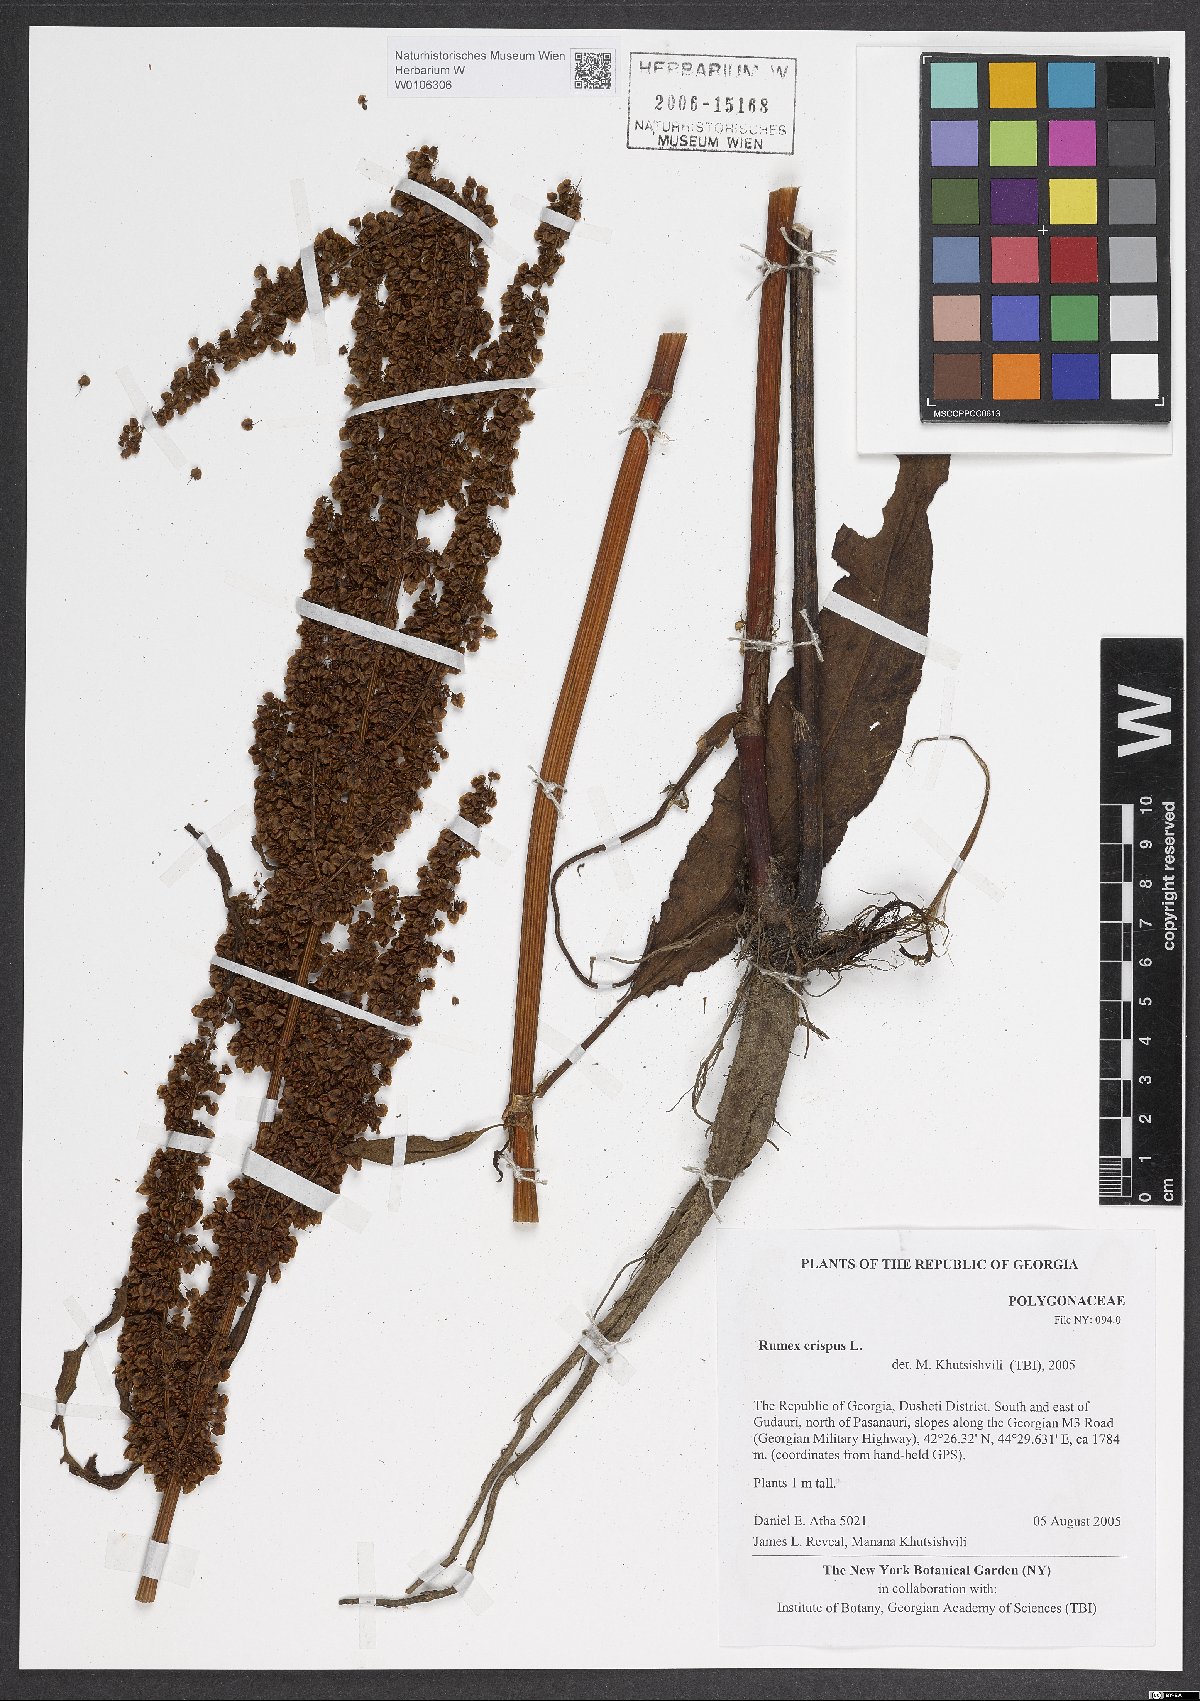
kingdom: Plantae
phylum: Tracheophyta
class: Magnoliopsida
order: Caryophyllales
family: Polygonaceae
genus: Rumex
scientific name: Rumex crispus
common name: Curled dock
